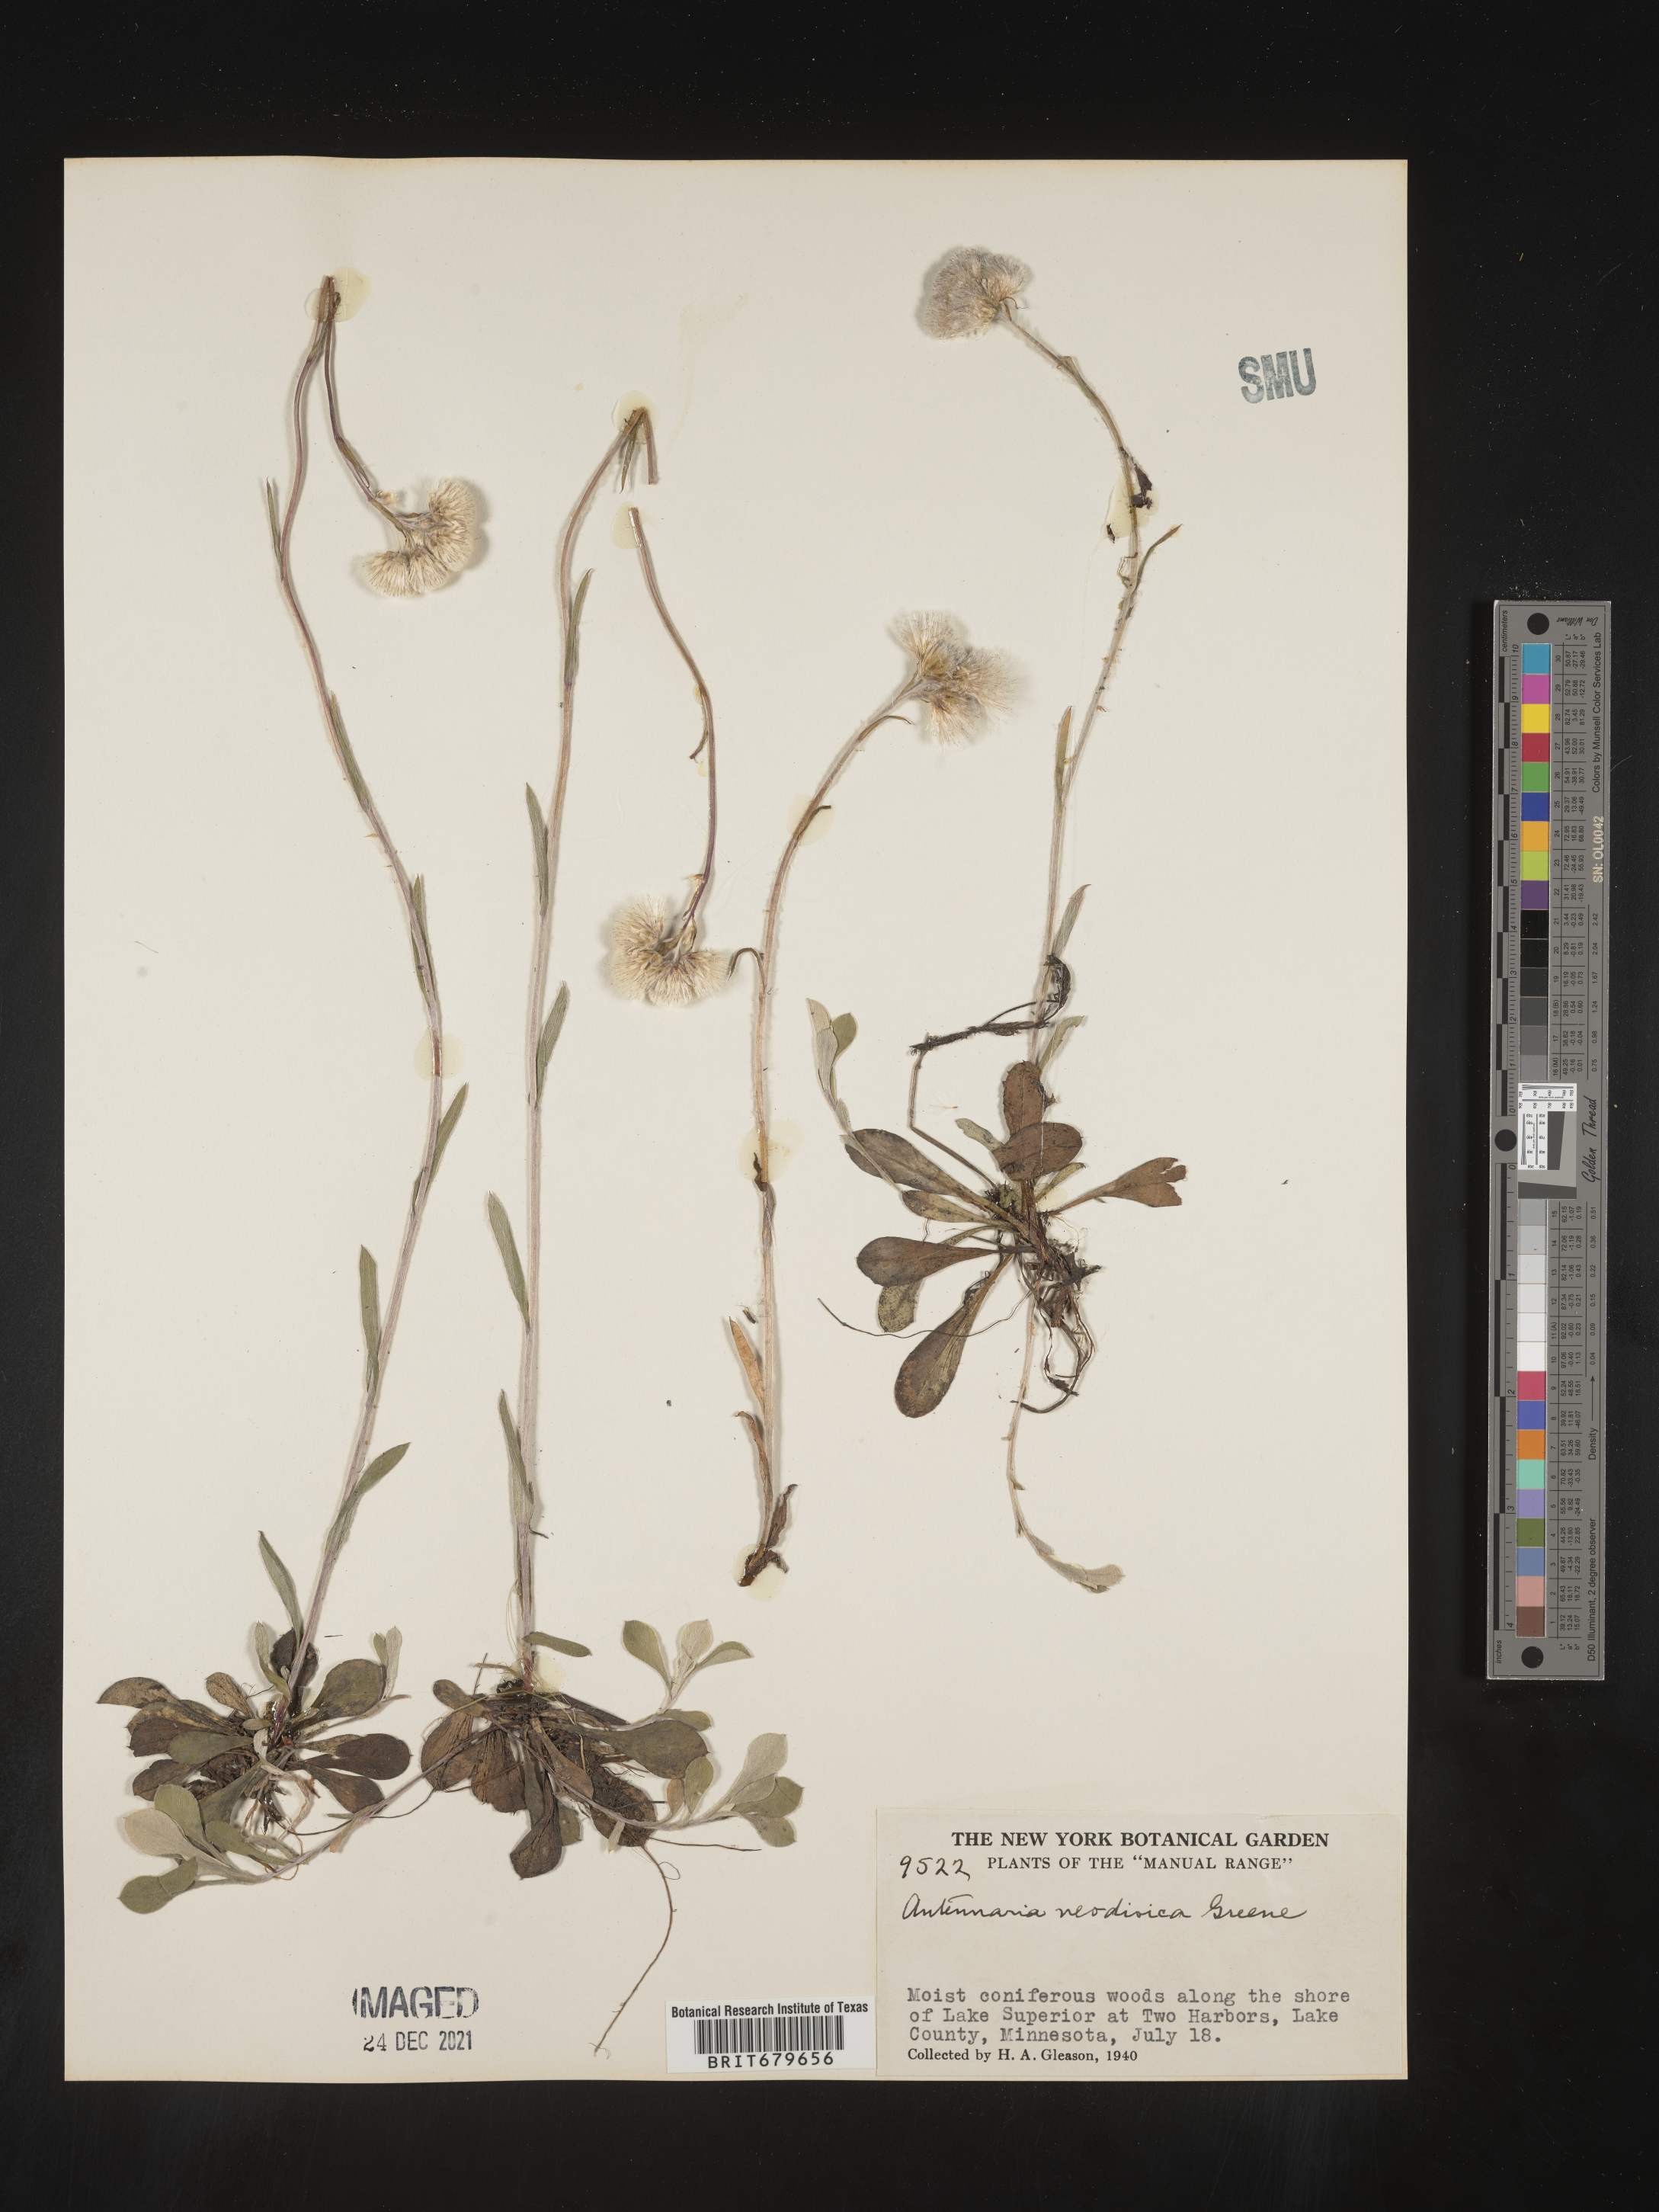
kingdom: Plantae
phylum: Tracheophyta
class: Magnoliopsida
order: Asterales
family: Asteraceae
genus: Antennaria
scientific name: Antennaria howellii
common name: Howell's pussytoes
